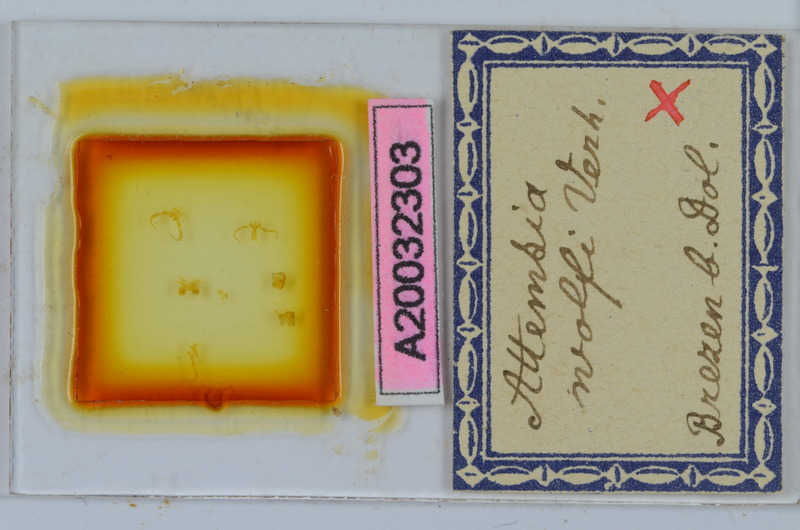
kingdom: Animalia
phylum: Arthropoda
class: Diplopoda
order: Chordeumatida
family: Attemsiidae
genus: Attemsia
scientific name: Attemsia stygia
